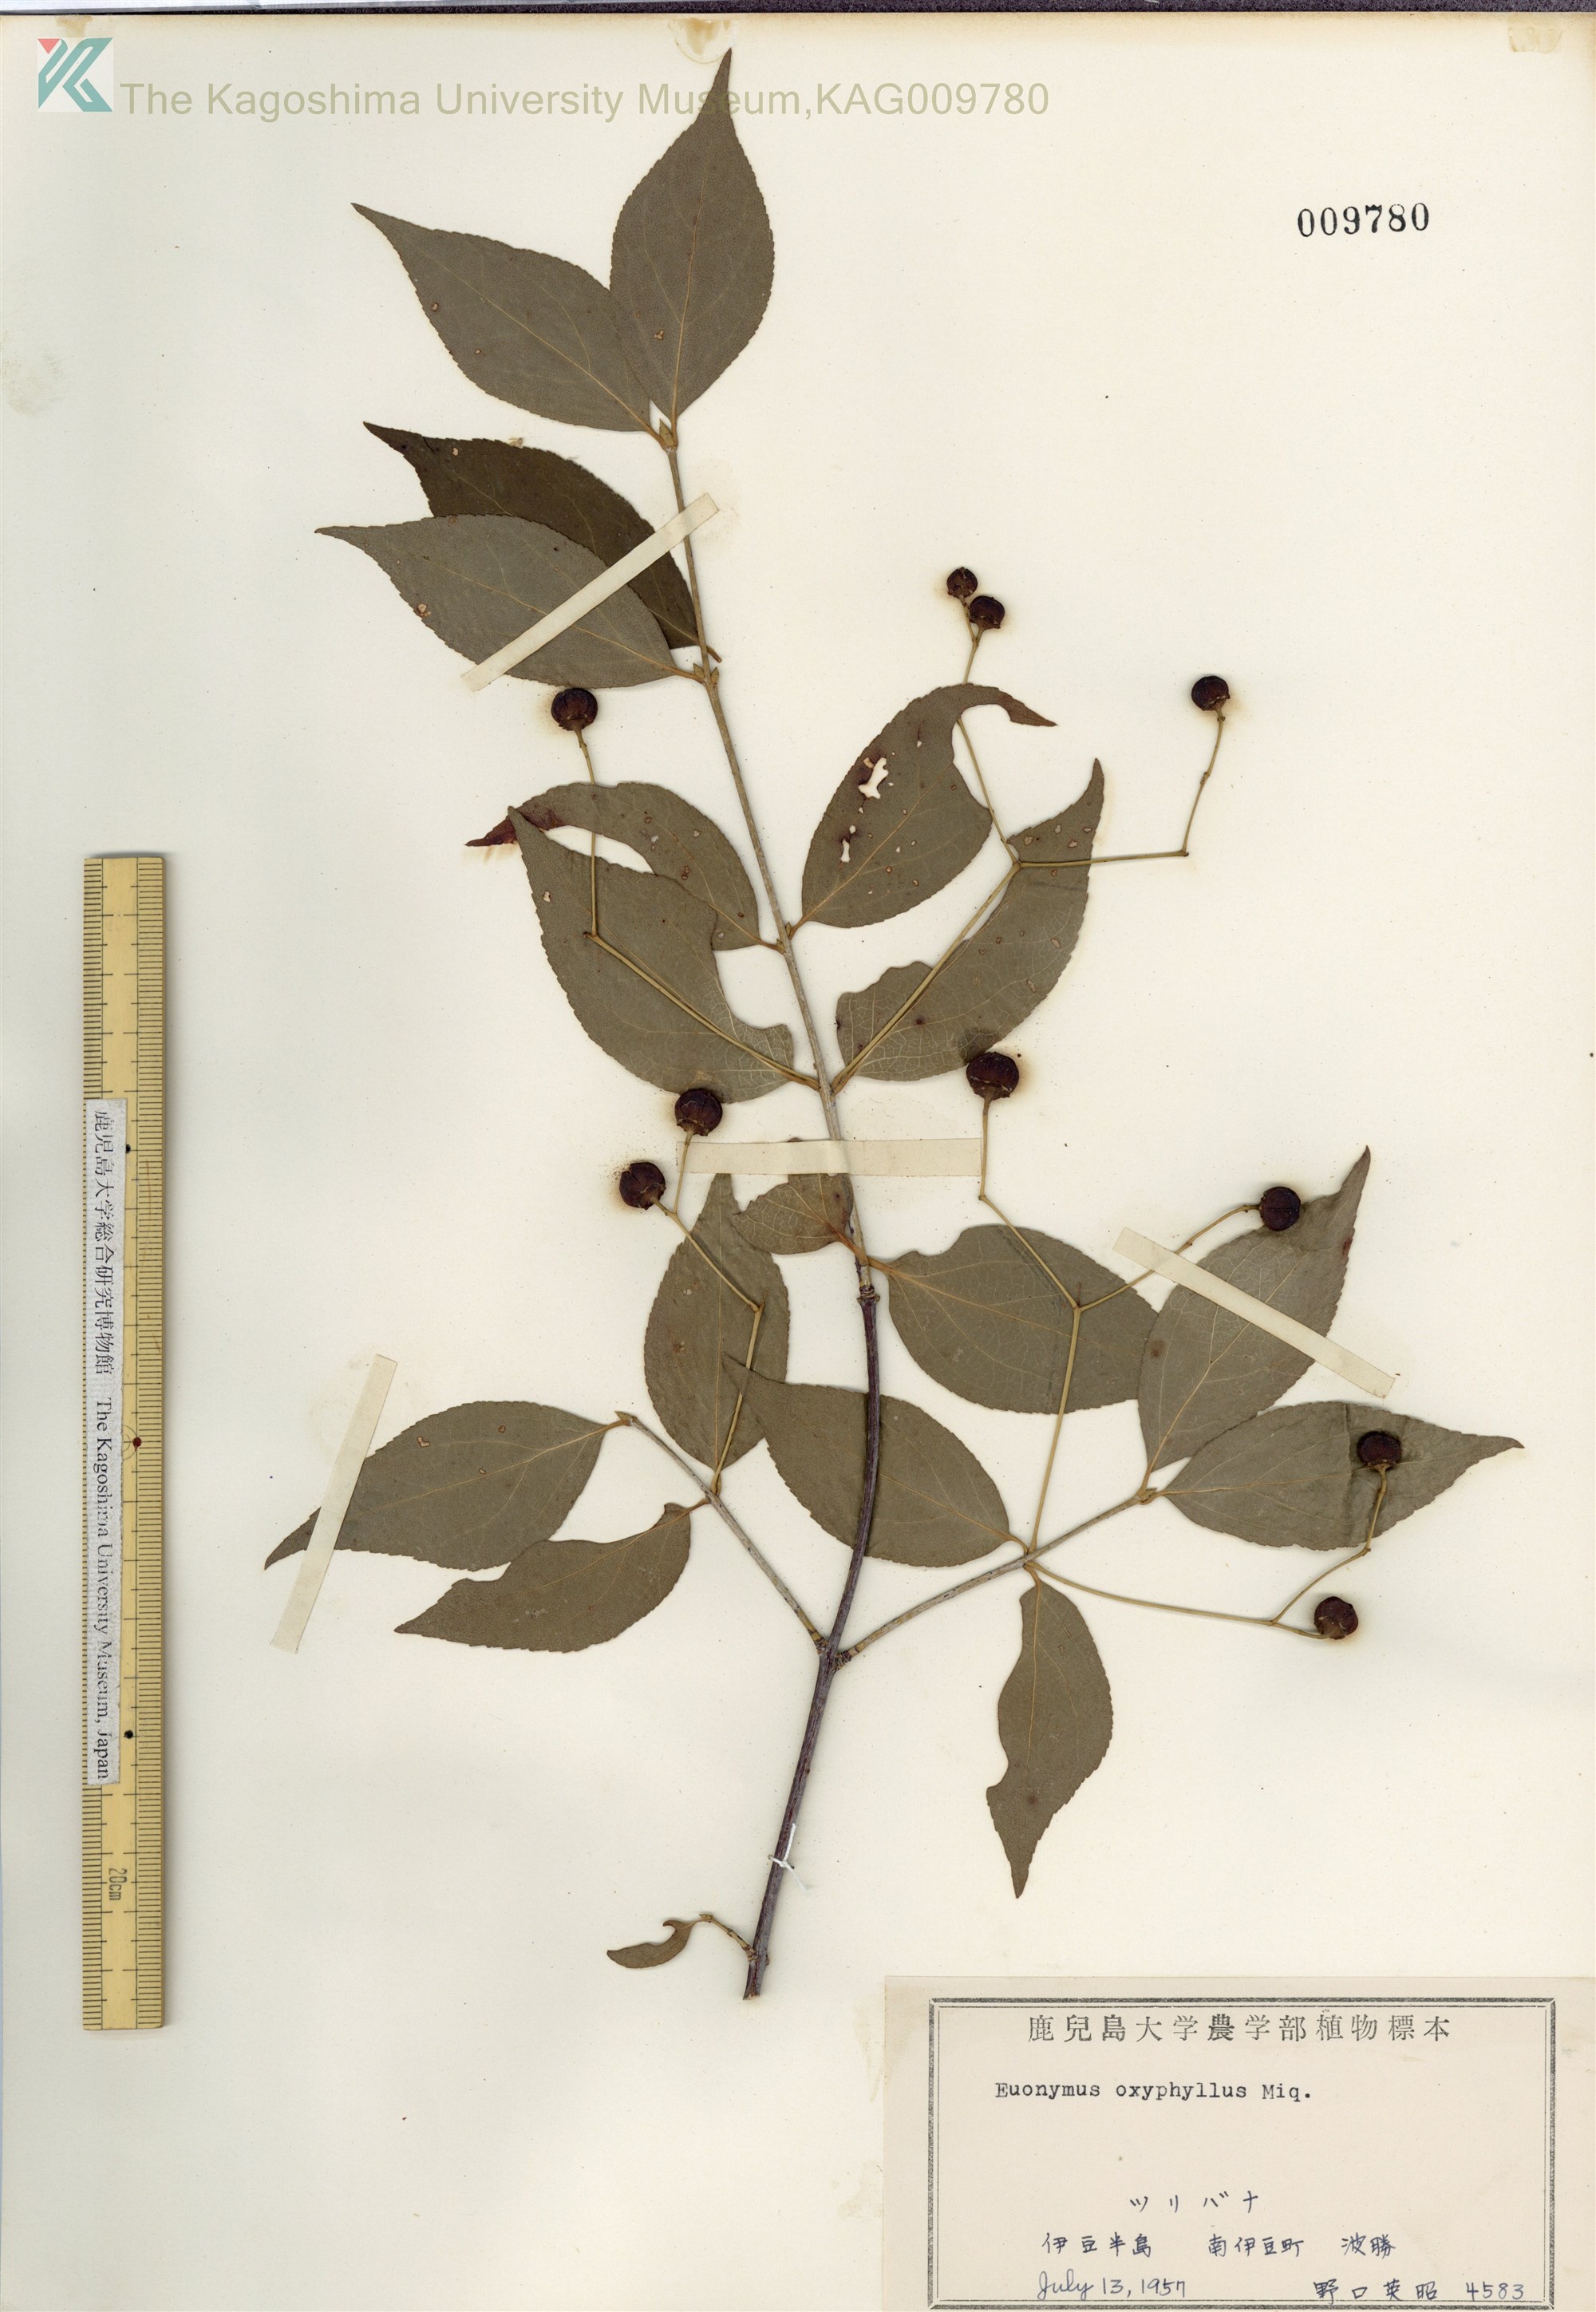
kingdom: Plantae
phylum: Tracheophyta
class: Magnoliopsida
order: Celastrales
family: Celastraceae
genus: Euonymus
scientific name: Euonymus oxyphyllus
